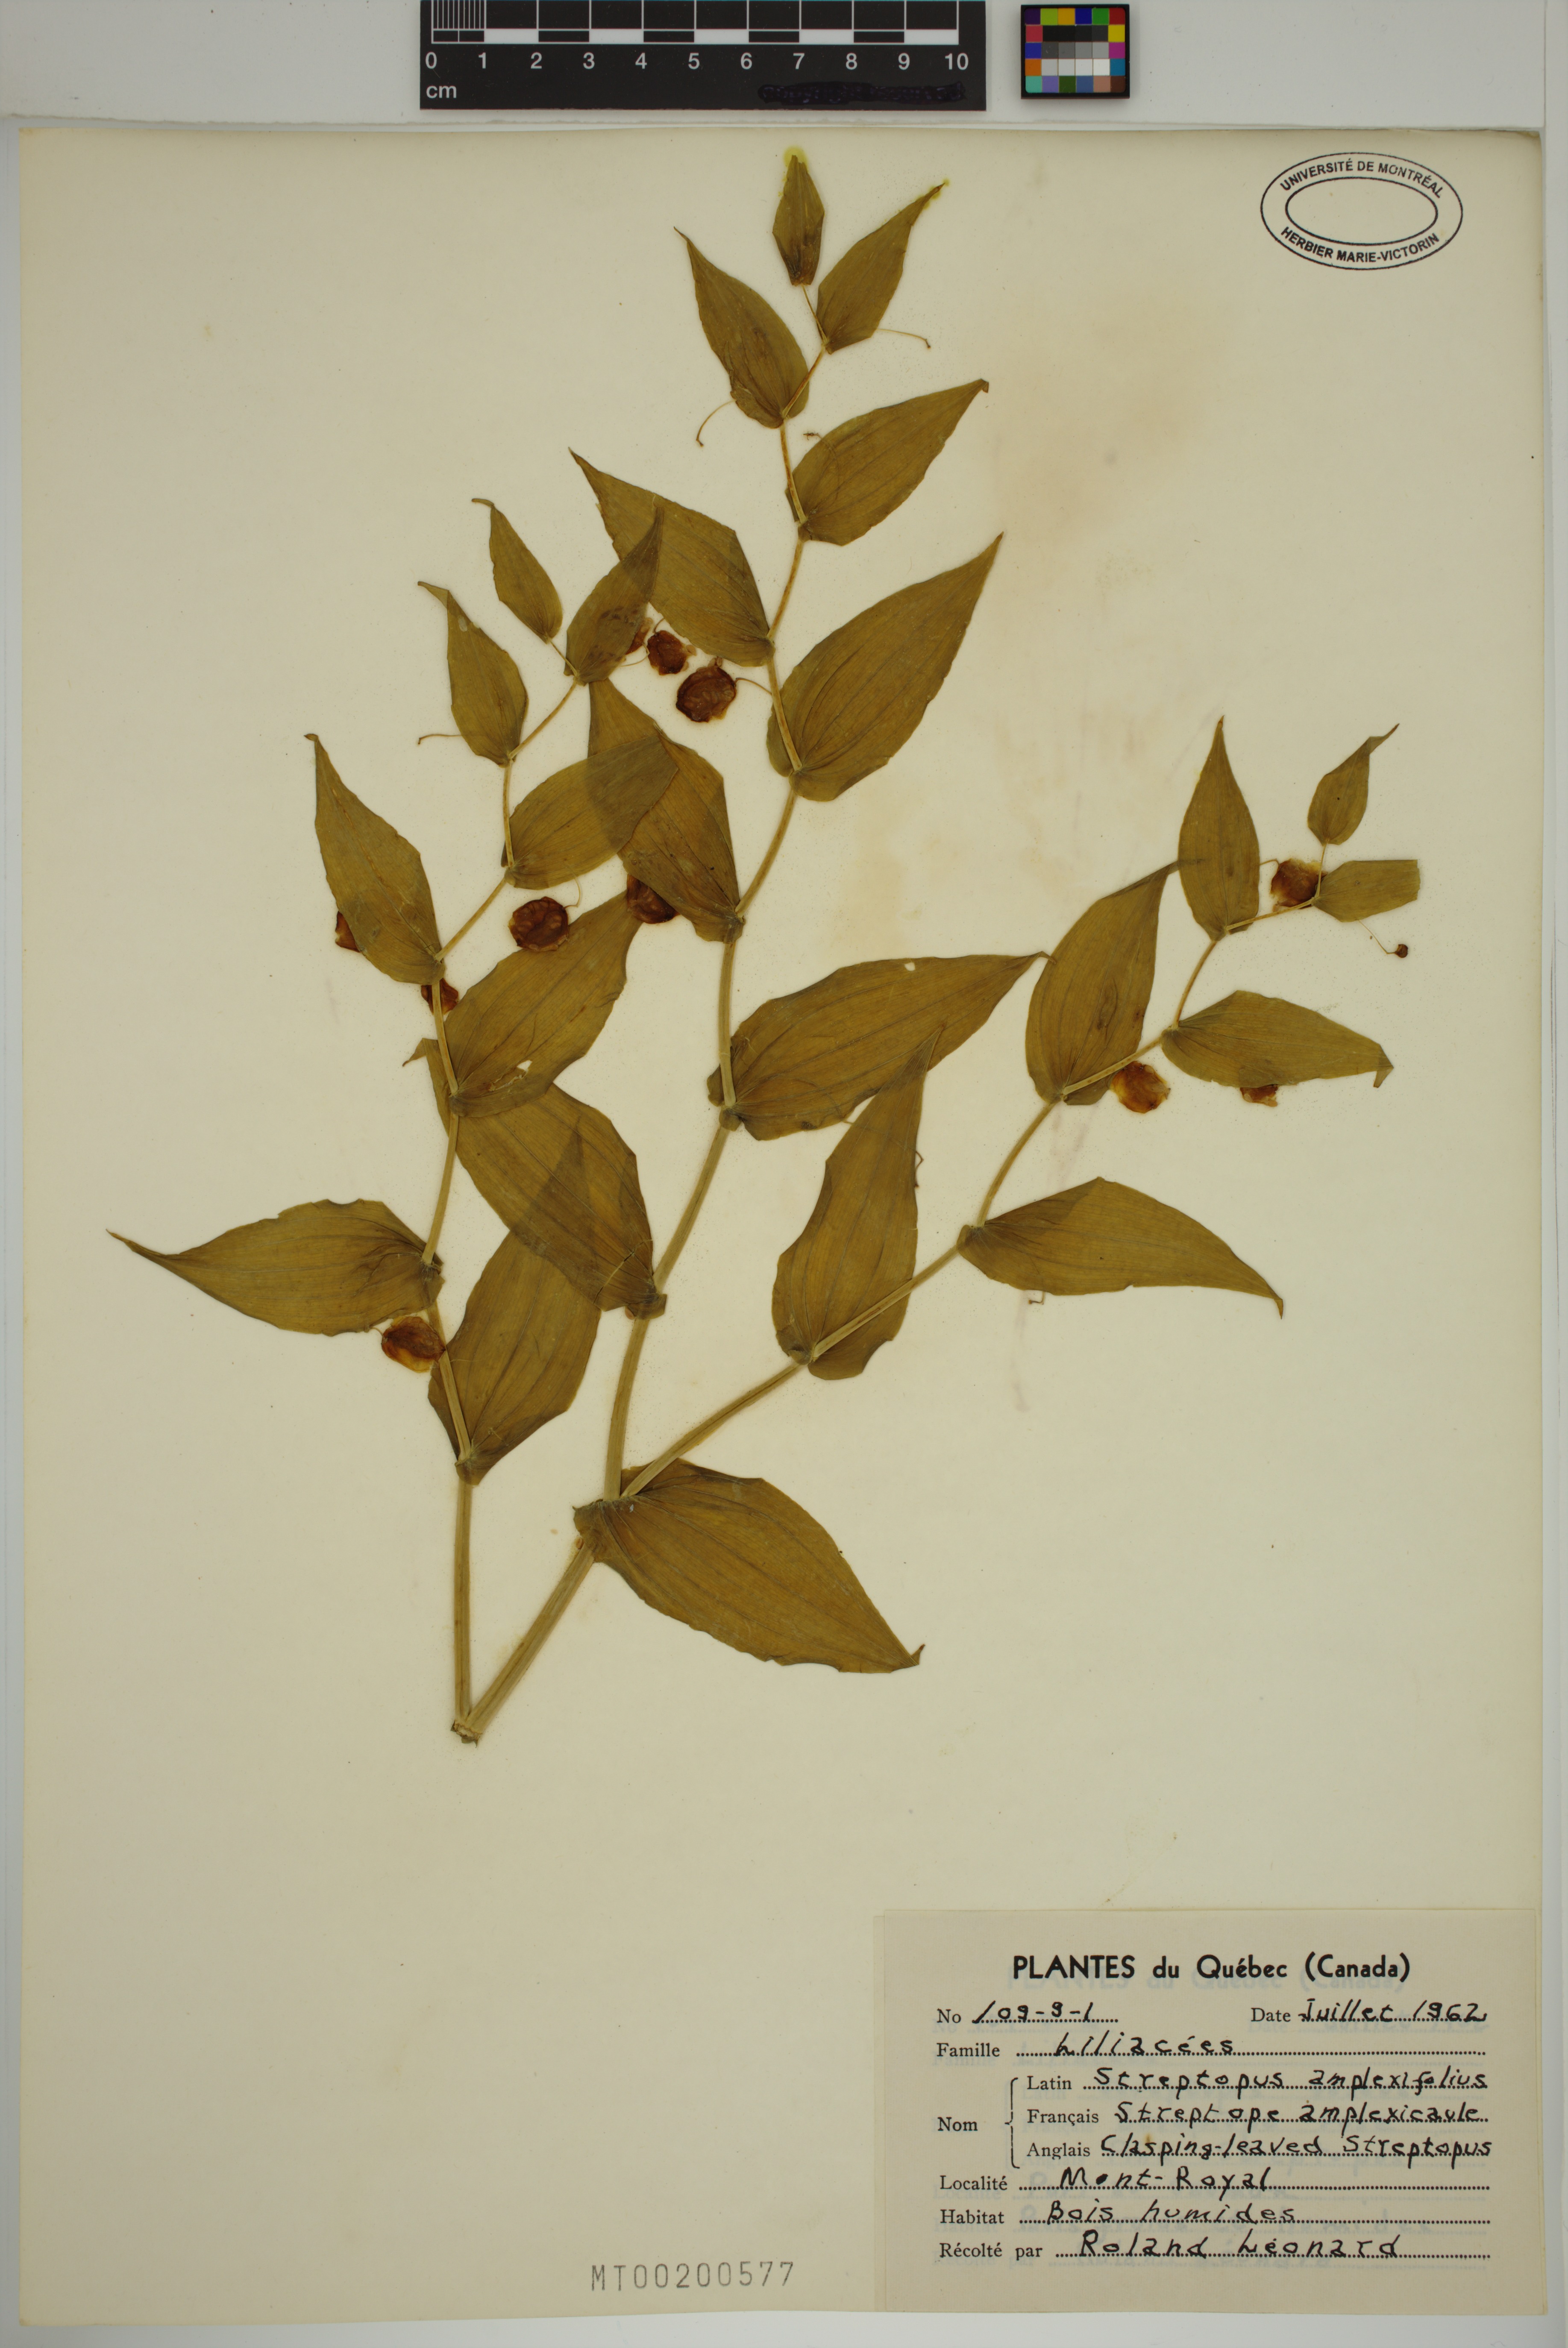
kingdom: Plantae
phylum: Tracheophyta
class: Liliopsida
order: Liliales
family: Liliaceae
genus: Streptopus
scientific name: Streptopus amplexifolius
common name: Clasp twisted stalk
